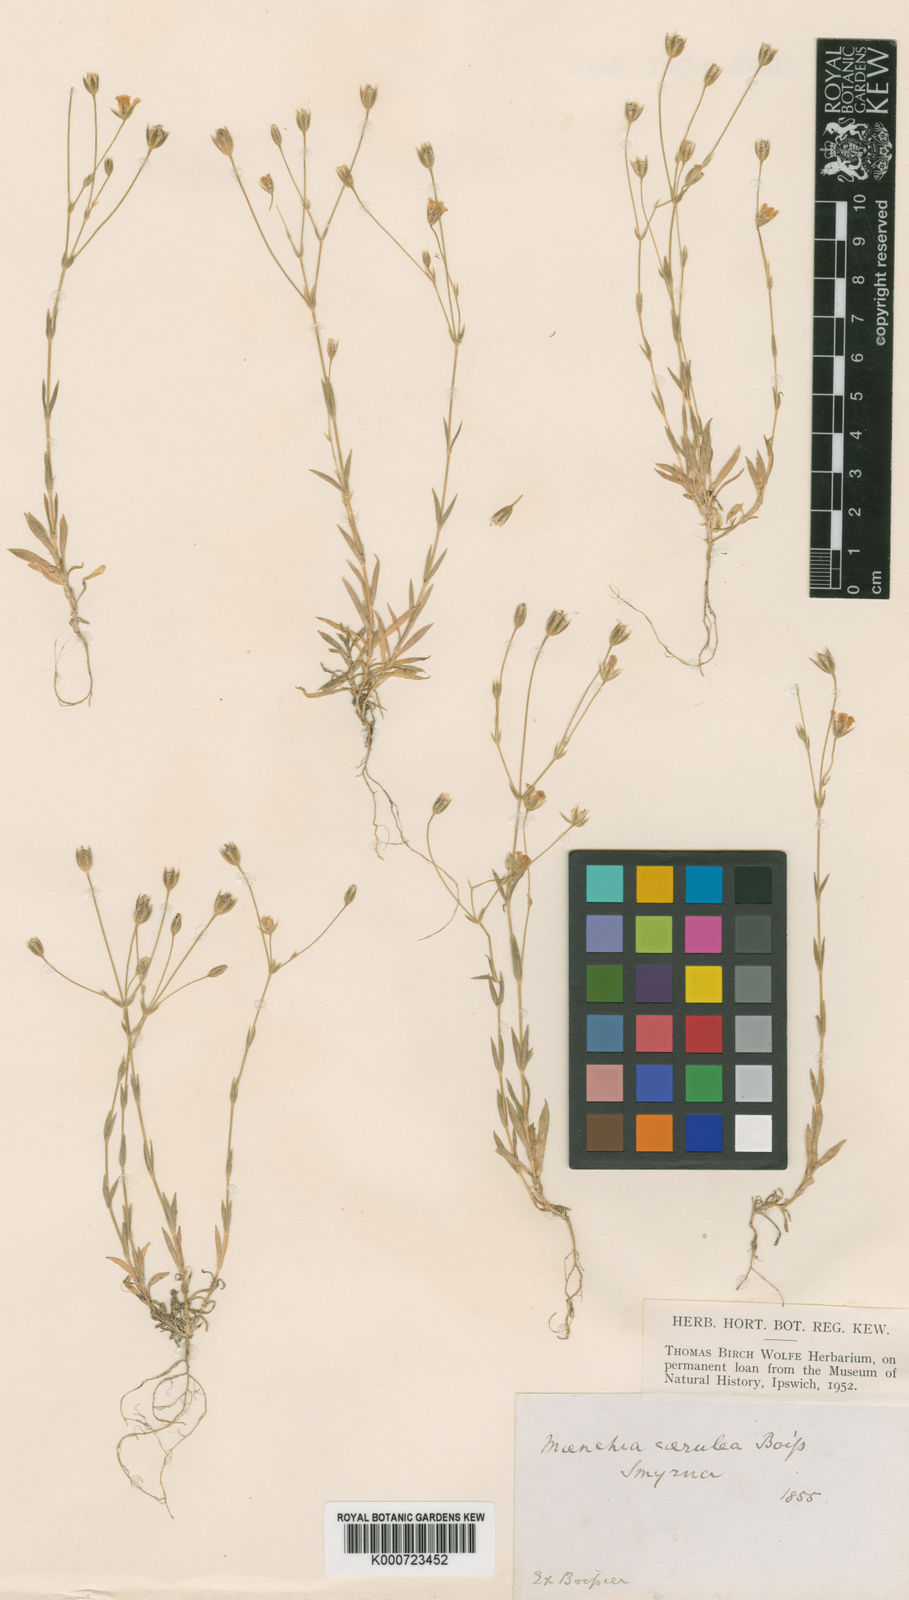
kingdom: Plantae
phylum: Tracheophyta
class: Magnoliopsida
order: Caryophyllales
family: Caryophyllaceae
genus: Moenchia
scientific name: Moenchia
